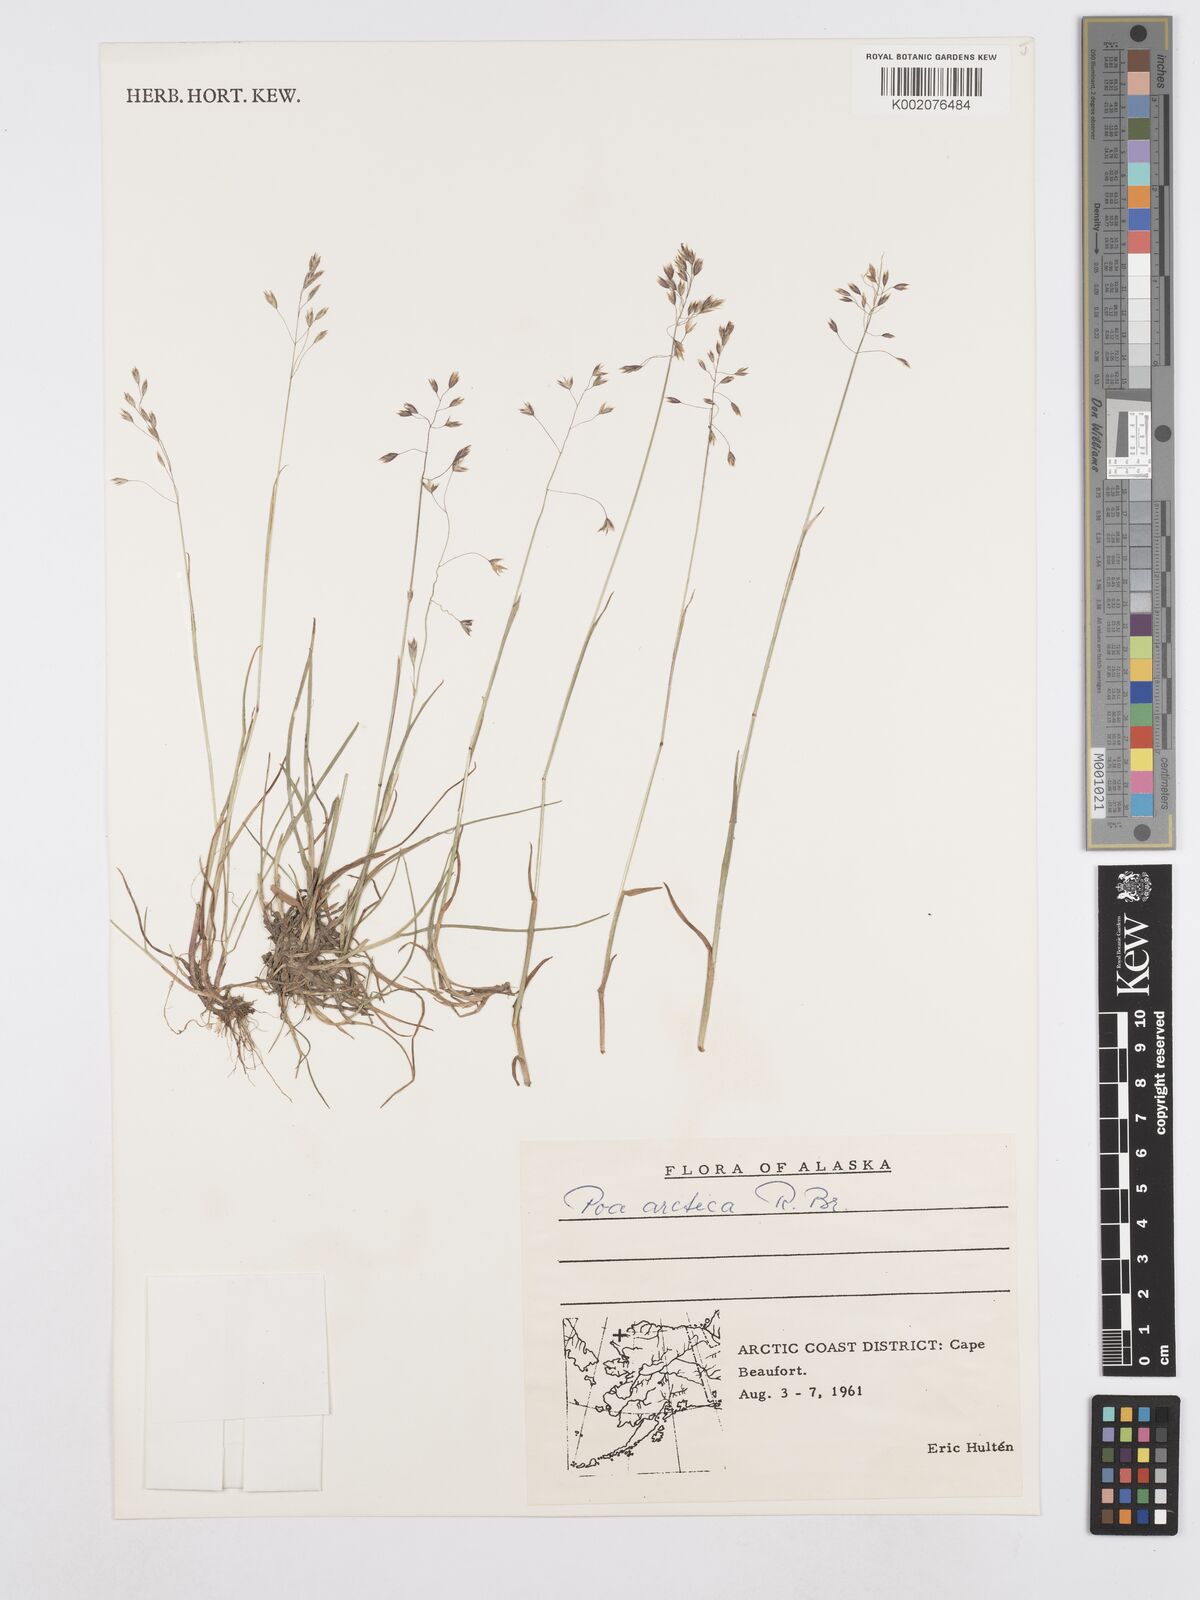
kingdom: Plantae
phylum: Tracheophyta
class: Liliopsida
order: Poales
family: Poaceae
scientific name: Poaceae
